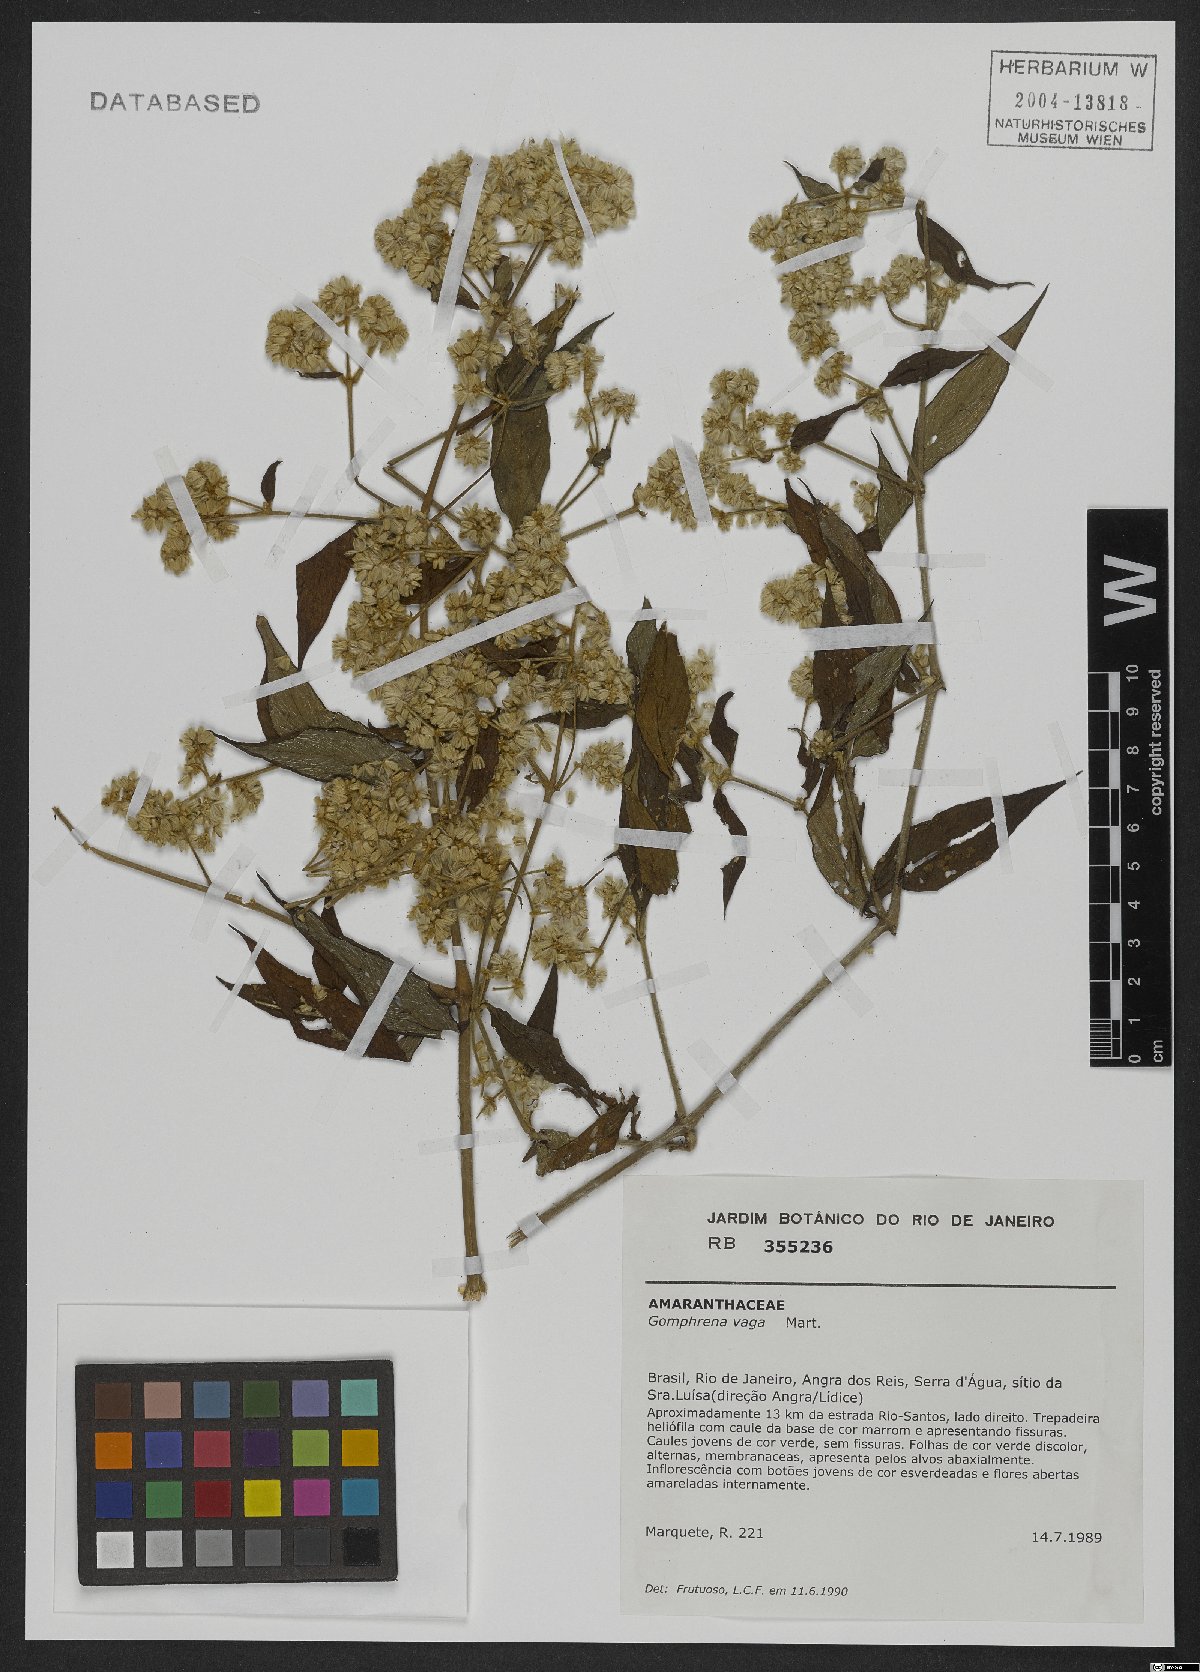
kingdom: Plantae
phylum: Tracheophyta
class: Magnoliopsida
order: Caryophyllales
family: Amaranthaceae
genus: Gomphrena
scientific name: Gomphrena vaga
